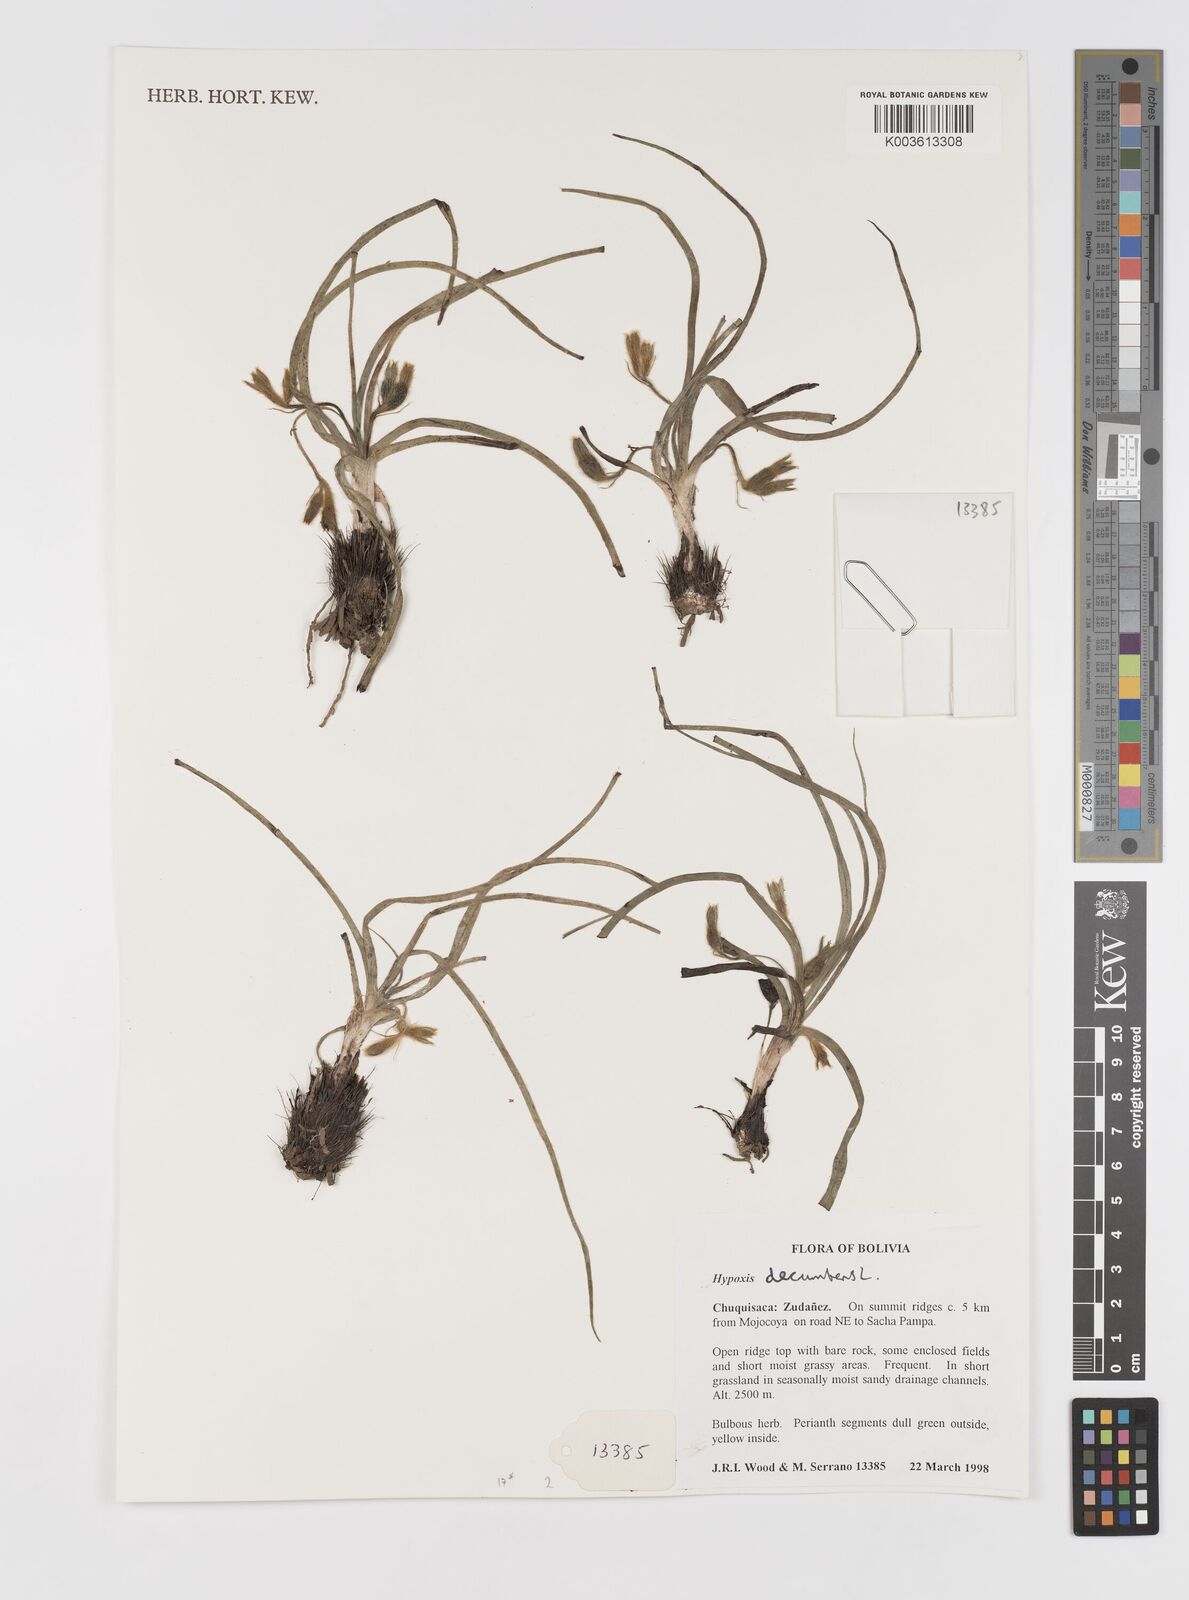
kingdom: Plantae
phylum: Tracheophyta
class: Liliopsida
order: Asparagales
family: Hypoxidaceae
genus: Hypoxis
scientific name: Hypoxis decumbens
